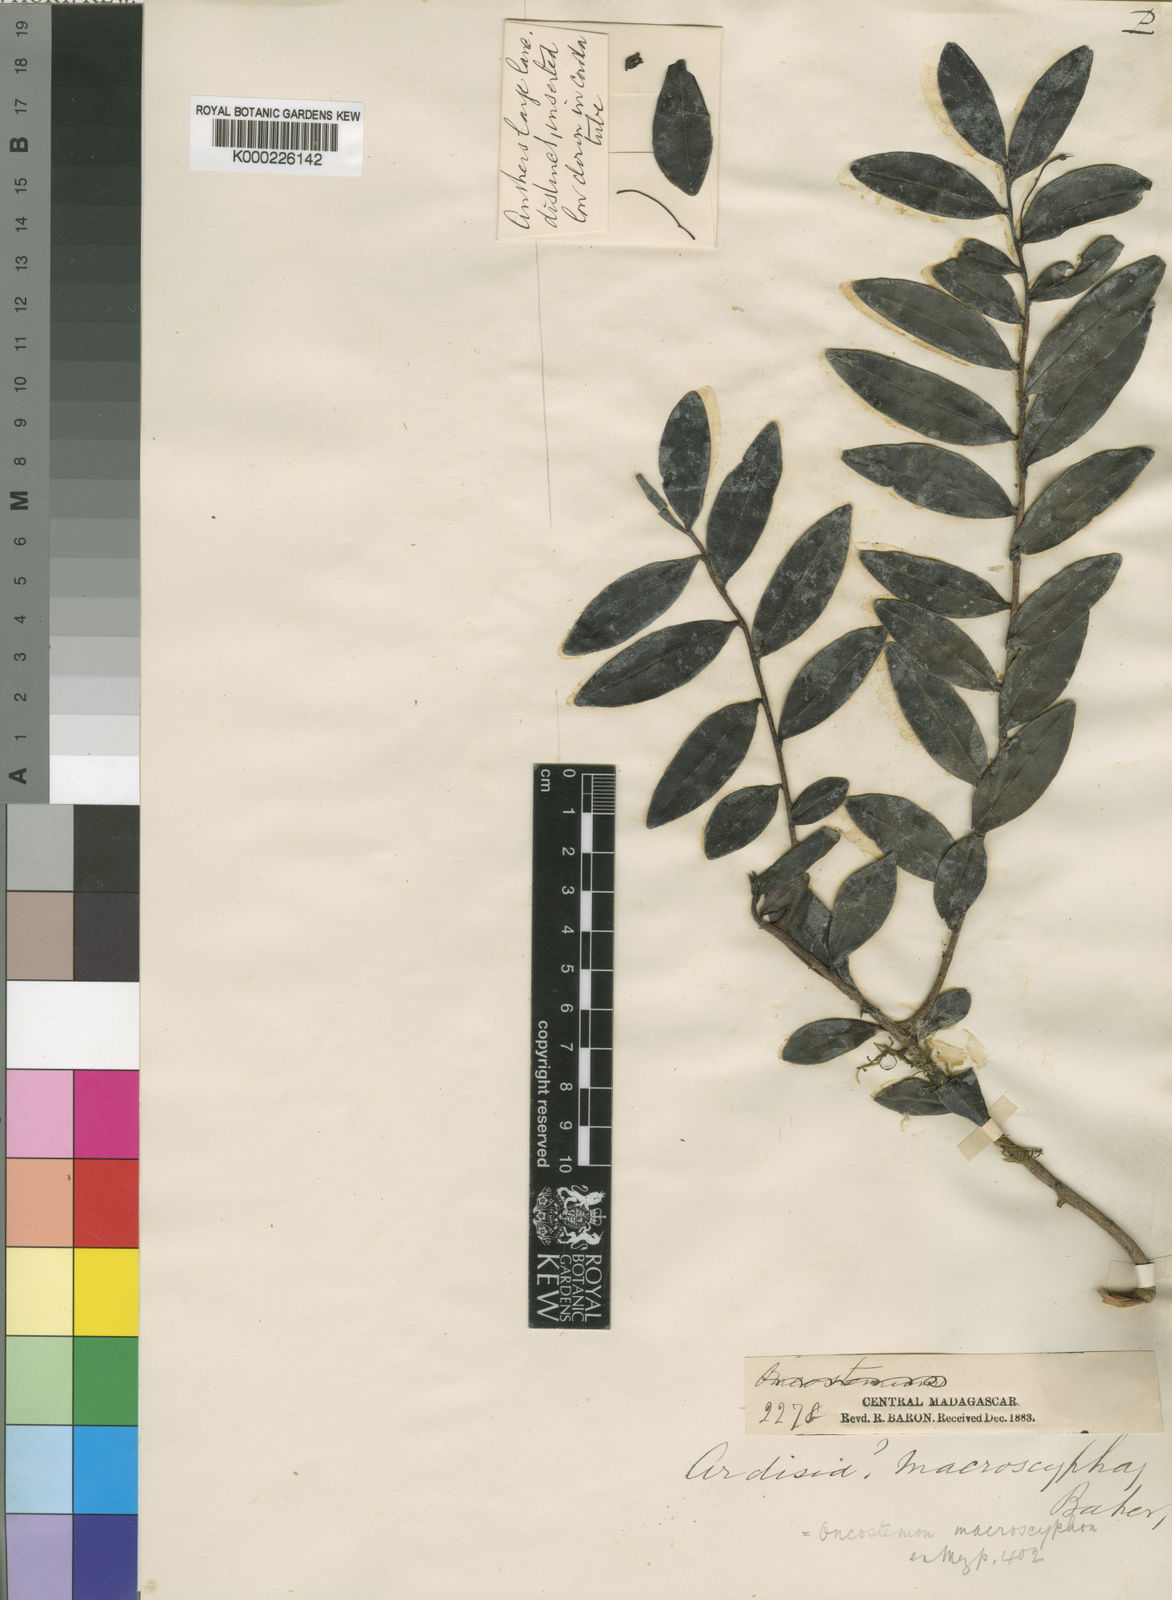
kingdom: Plantae
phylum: Tracheophyta
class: Magnoliopsida
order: Ericales
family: Primulaceae
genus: Oncostemum
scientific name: Oncostemum macroscyphon
